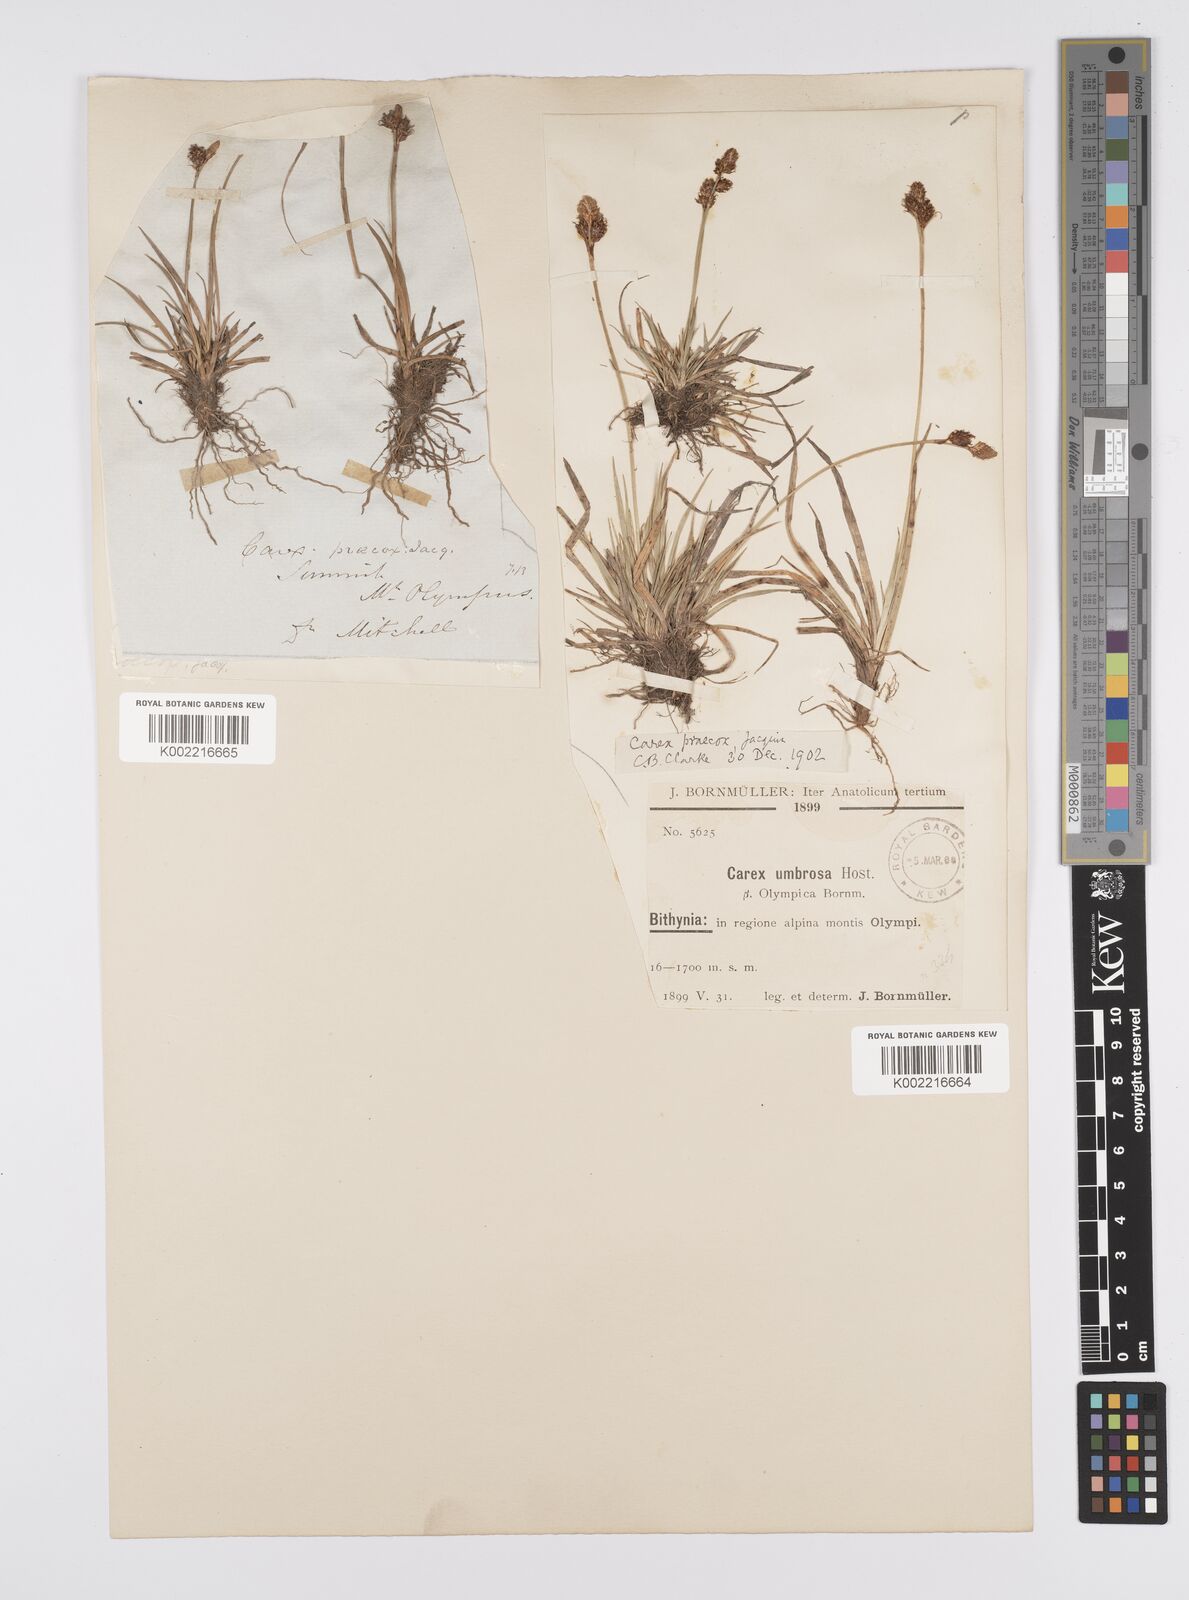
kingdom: Plantae
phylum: Tracheophyta
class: Liliopsida
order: Poales
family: Cyperaceae
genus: Carex
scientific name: Carex umbrosa
